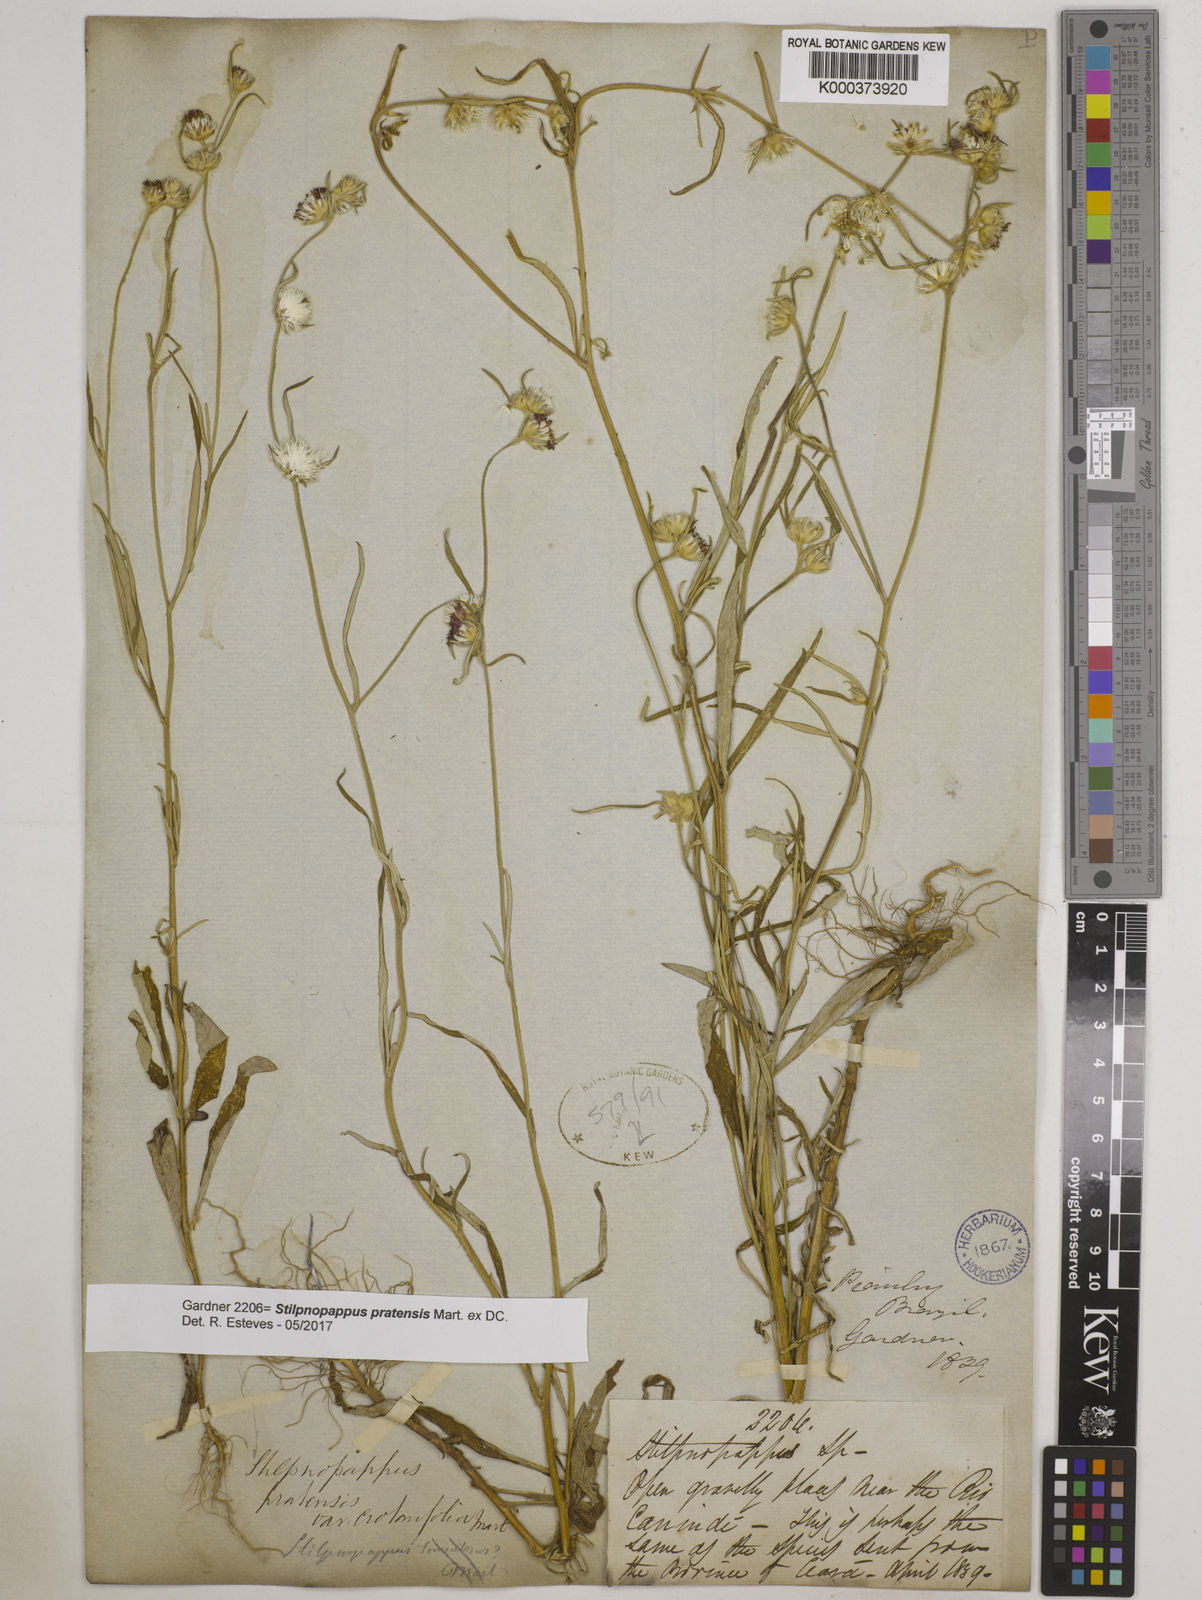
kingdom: Plantae
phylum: Tracheophyta
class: Magnoliopsida
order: Asterales
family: Asteraceae
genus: Stilpnopappus
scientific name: Stilpnopappus pratensis
